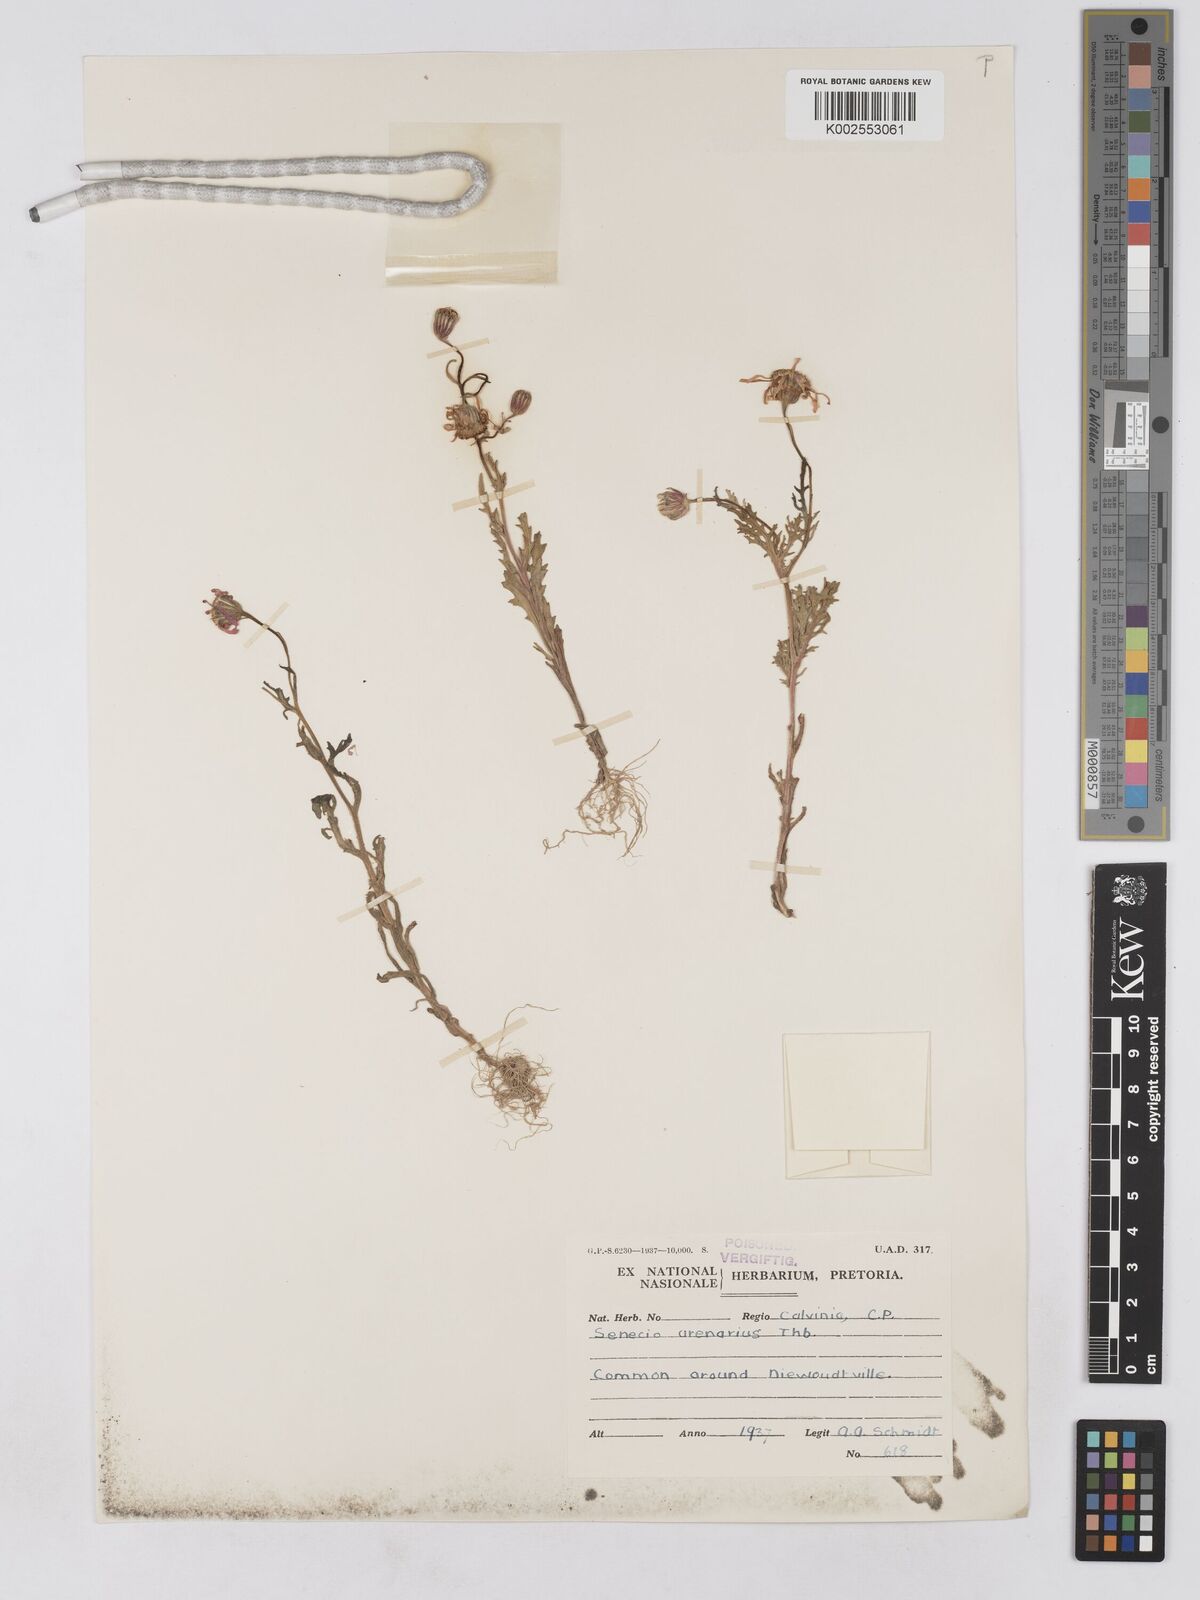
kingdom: Plantae
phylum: Tracheophyta
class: Magnoliopsida
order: Asterales
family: Asteraceae
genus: Senecio
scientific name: Senecio arenarius
